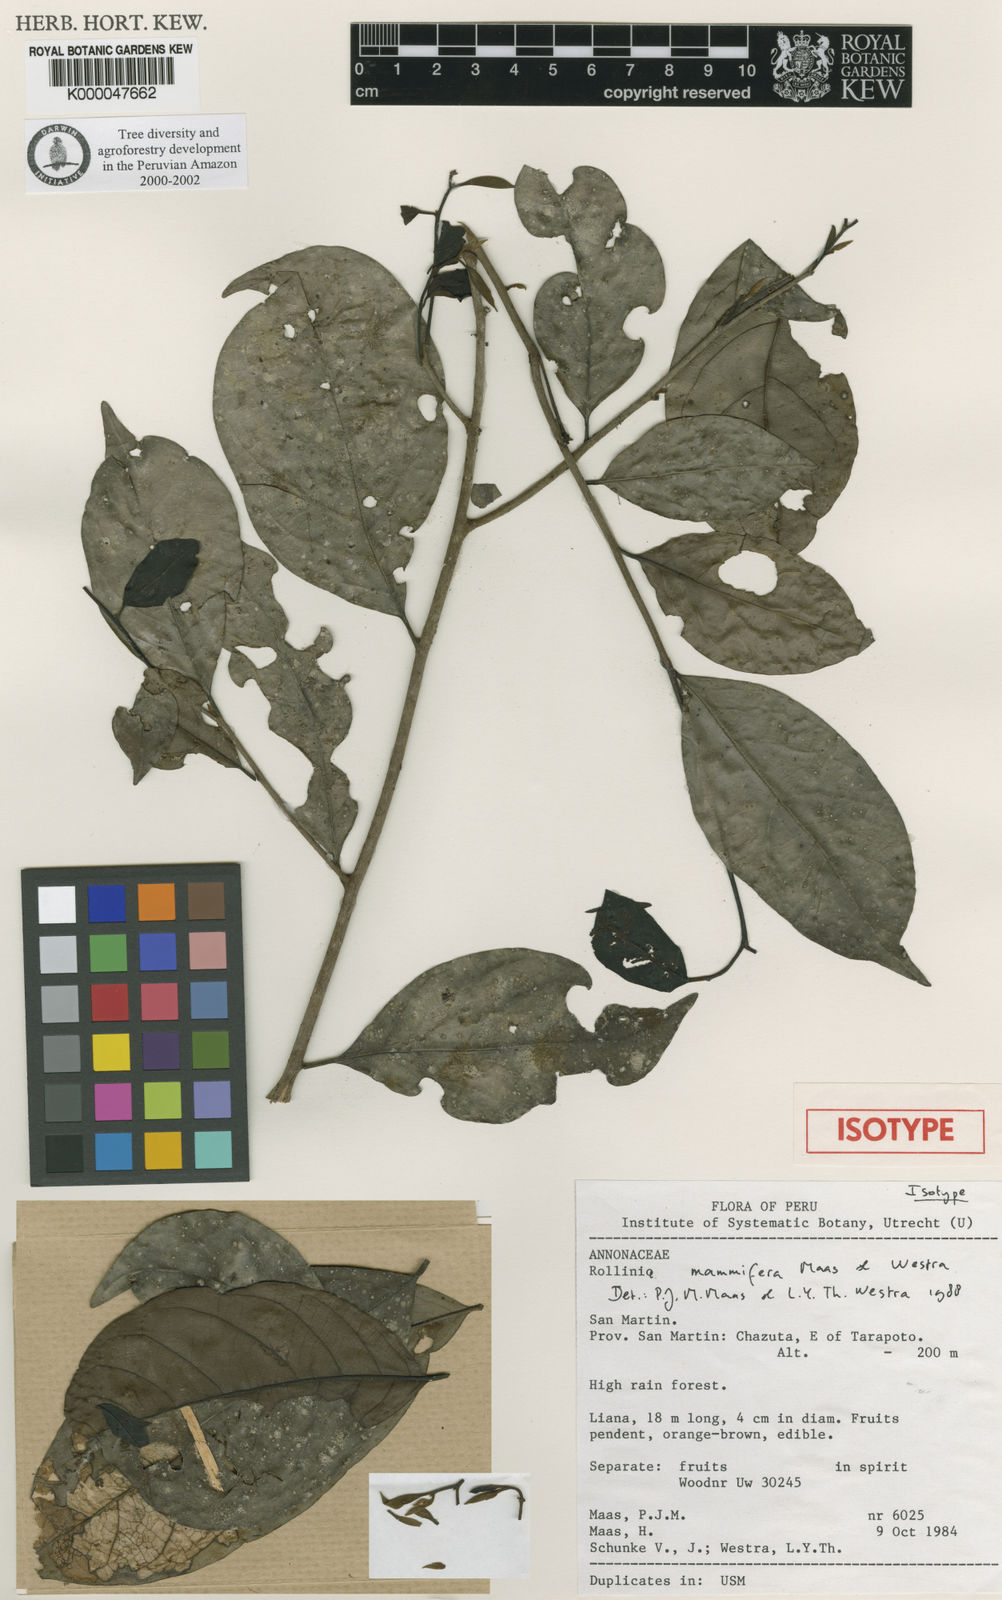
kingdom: Plantae
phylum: Tracheophyta
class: Magnoliopsida
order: Magnoliales
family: Annonaceae
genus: Annona
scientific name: Annona mammifera
